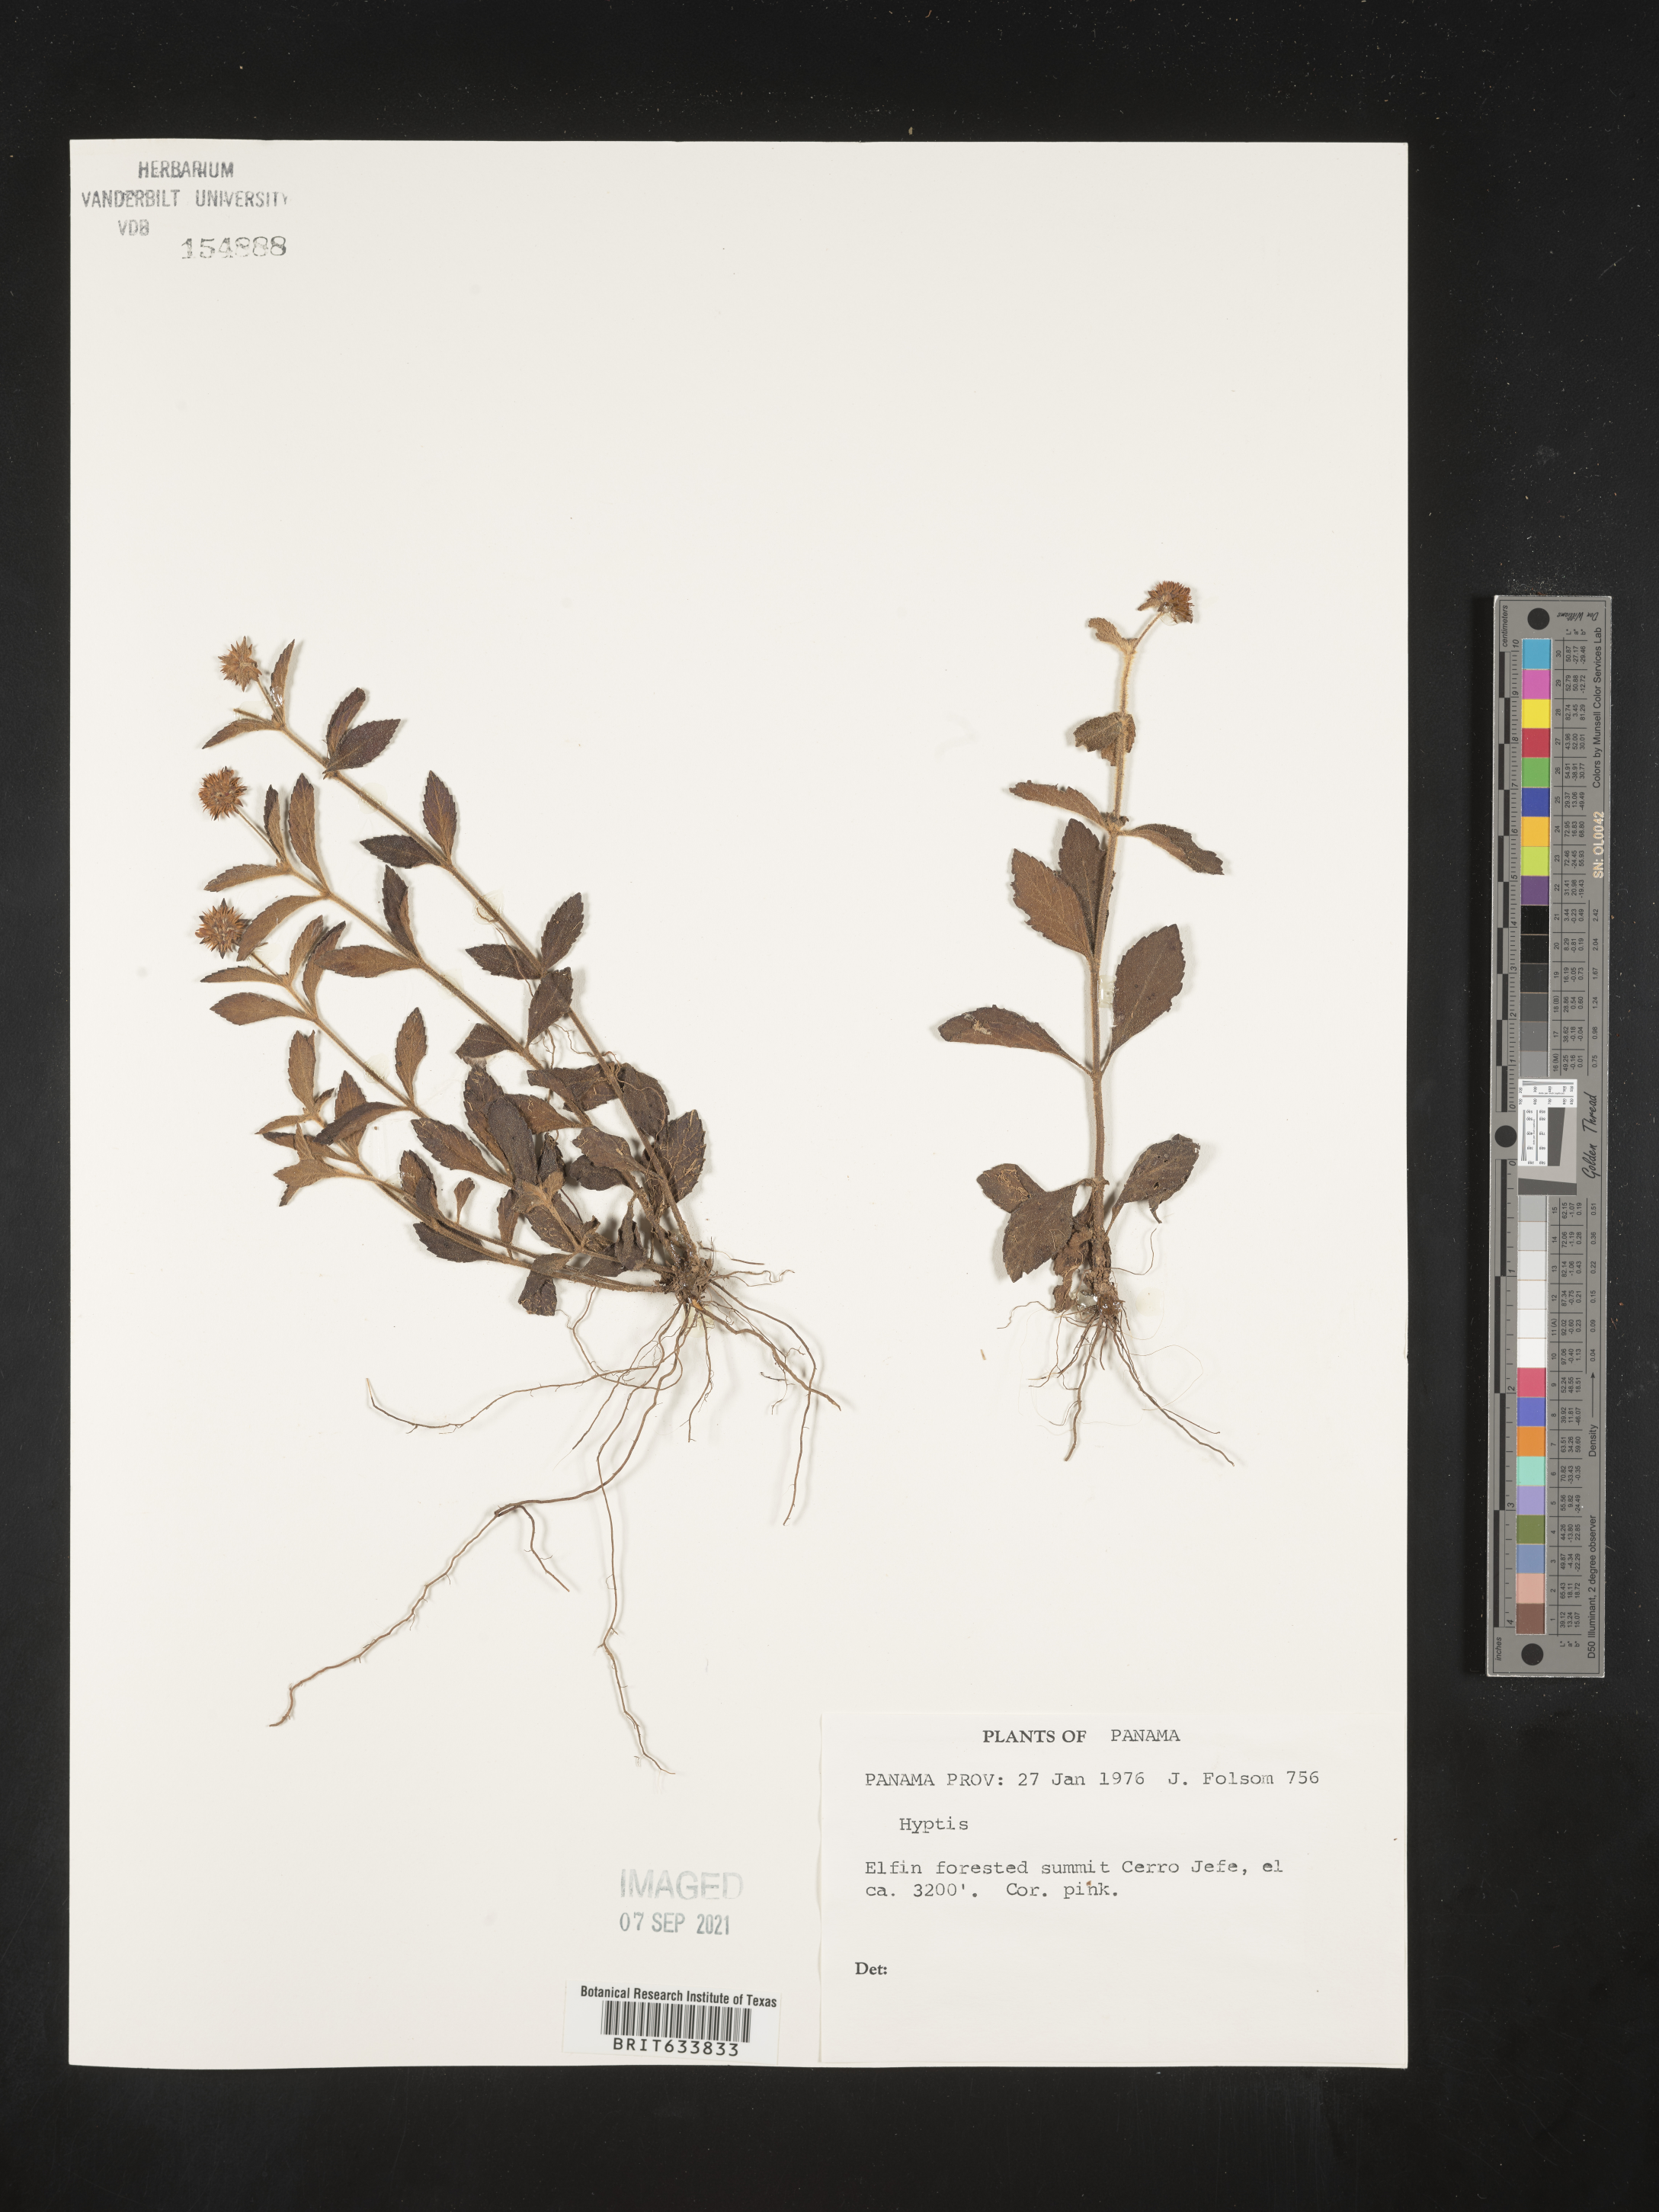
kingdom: Plantae
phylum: Tracheophyta
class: Magnoliopsida
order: Lamiales
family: Lamiaceae
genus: Hyptis
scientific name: Hyptis
